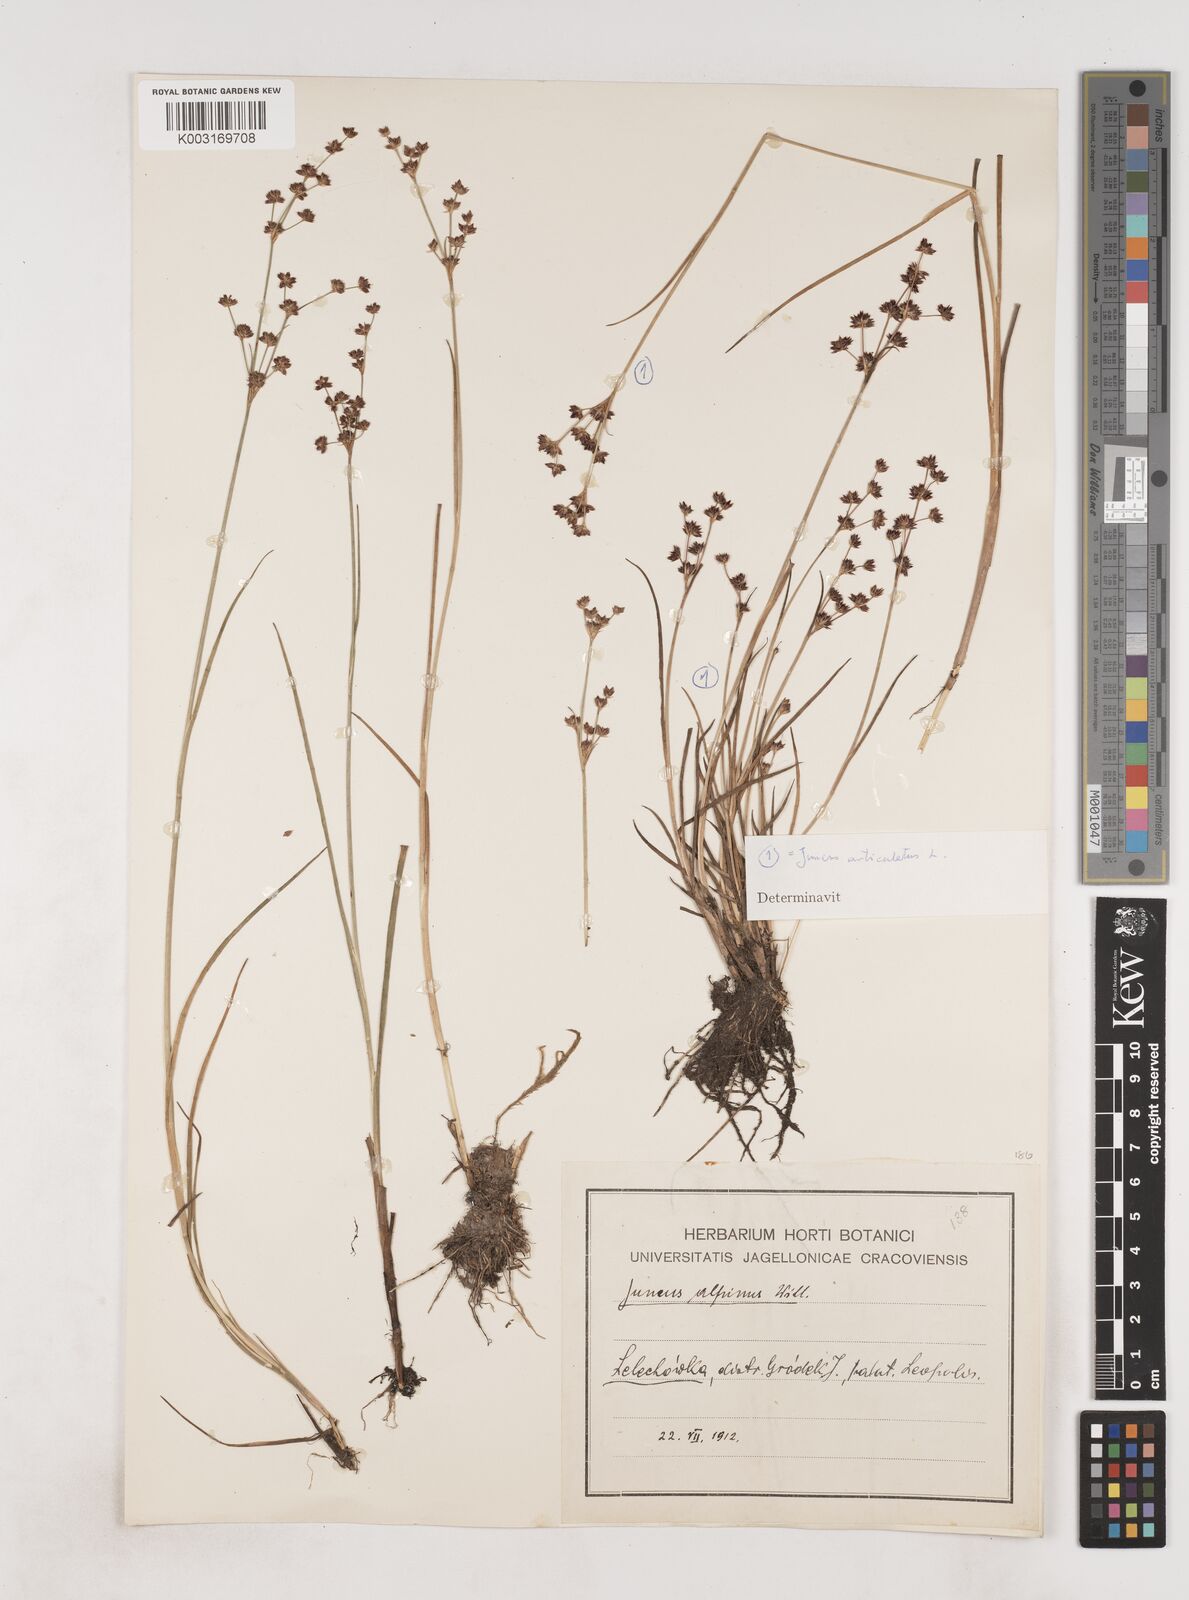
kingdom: Plantae
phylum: Tracheophyta
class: Liliopsida
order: Poales
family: Juncaceae
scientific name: Juncaceae
